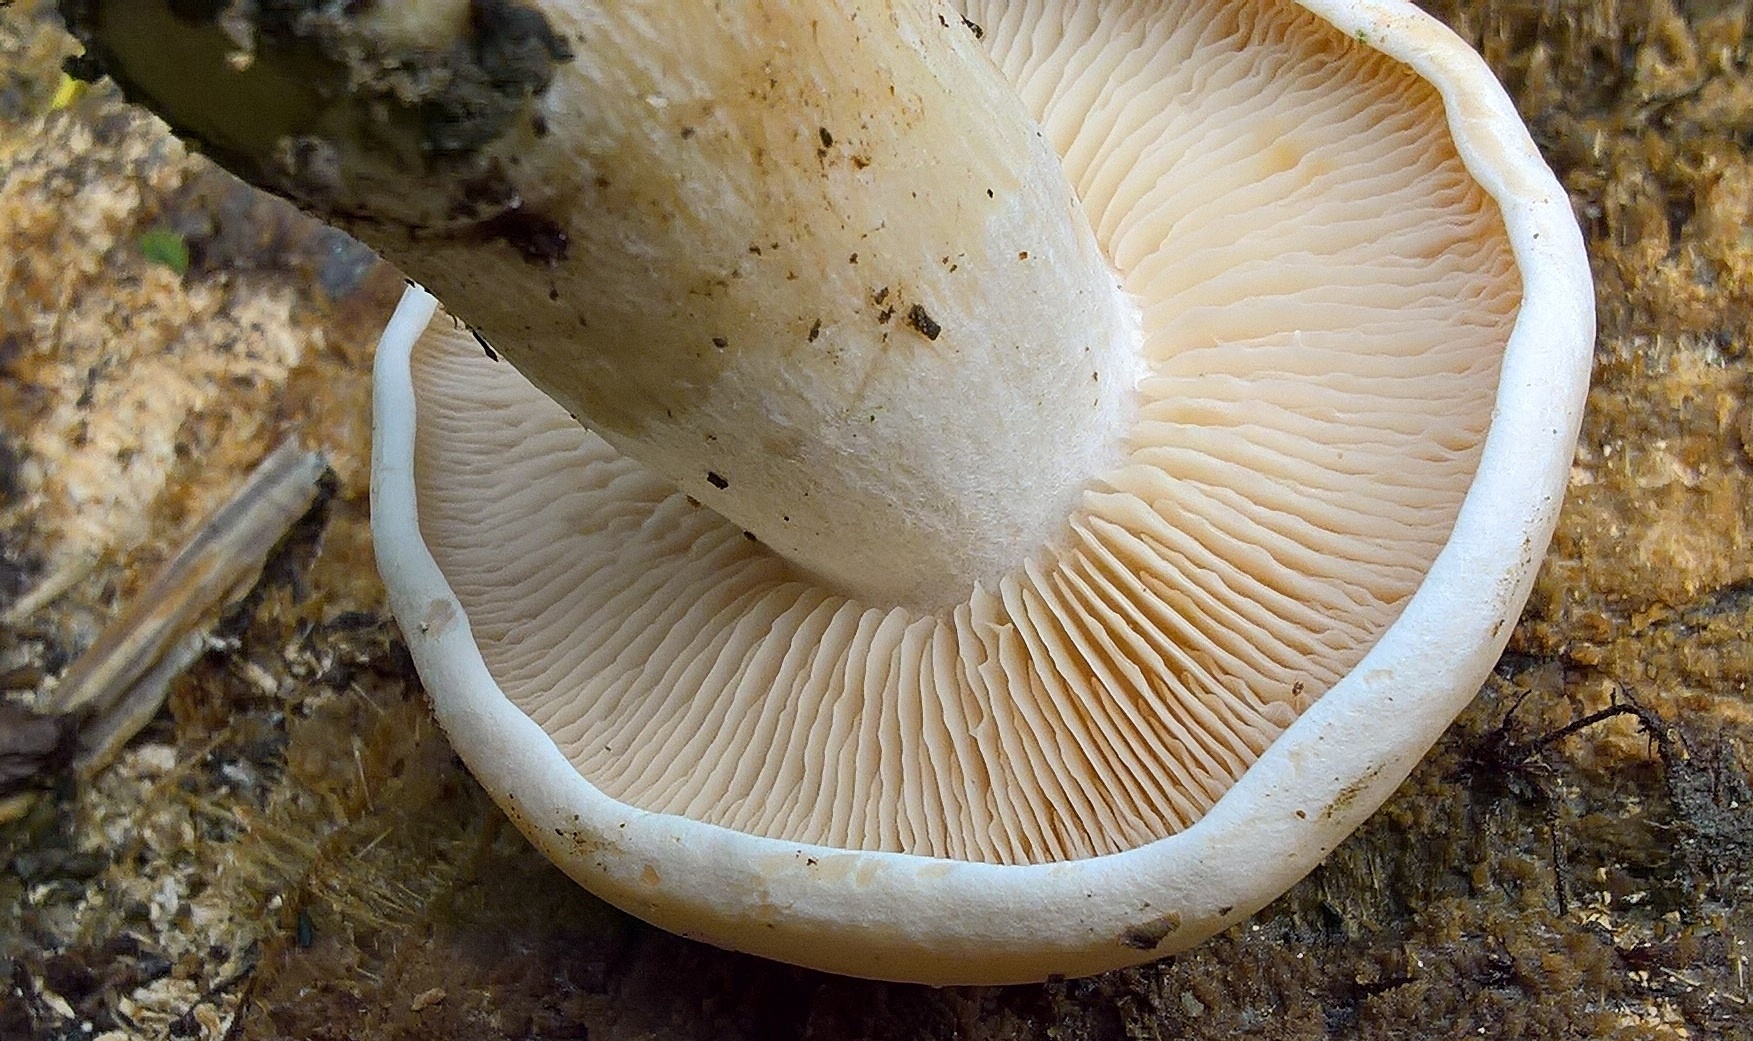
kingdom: Fungi
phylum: Basidiomycota
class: Agaricomycetes
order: Agaricales
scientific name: Agaricales
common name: champignonordenen
